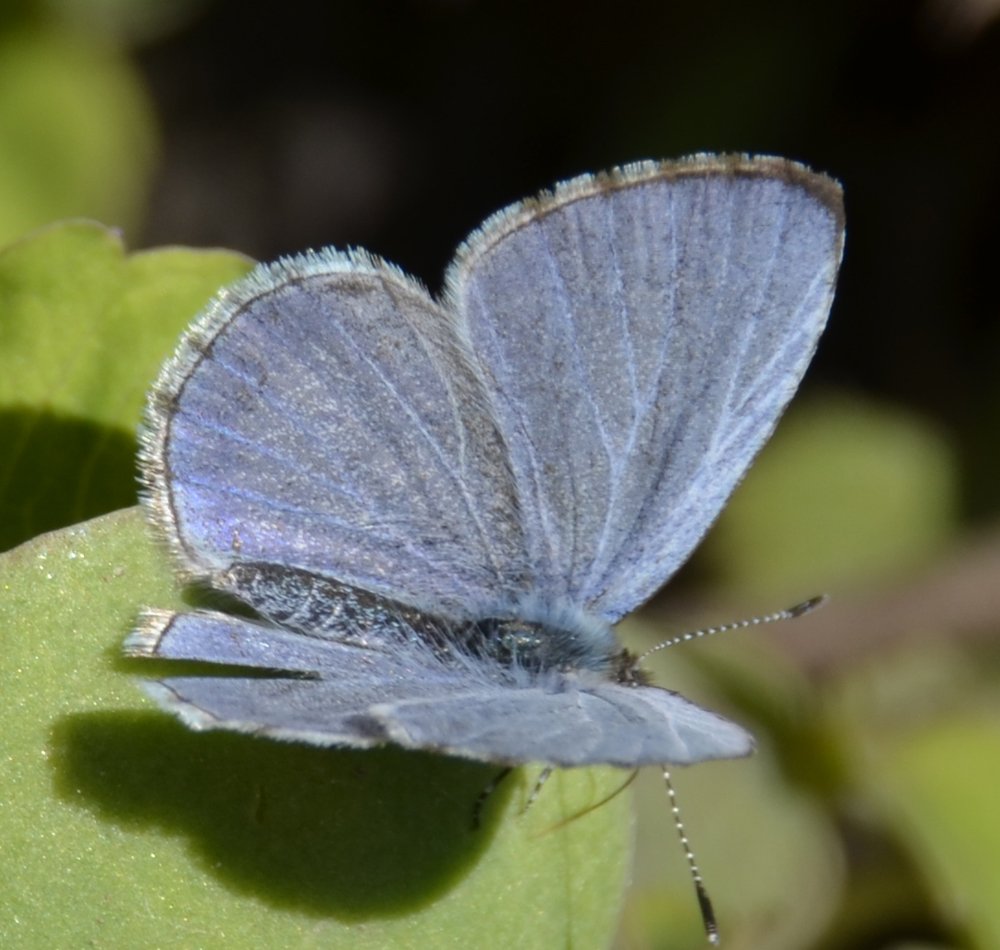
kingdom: Animalia
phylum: Arthropoda
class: Insecta
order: Lepidoptera
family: Lycaenidae
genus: Celastrina
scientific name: Celastrina
